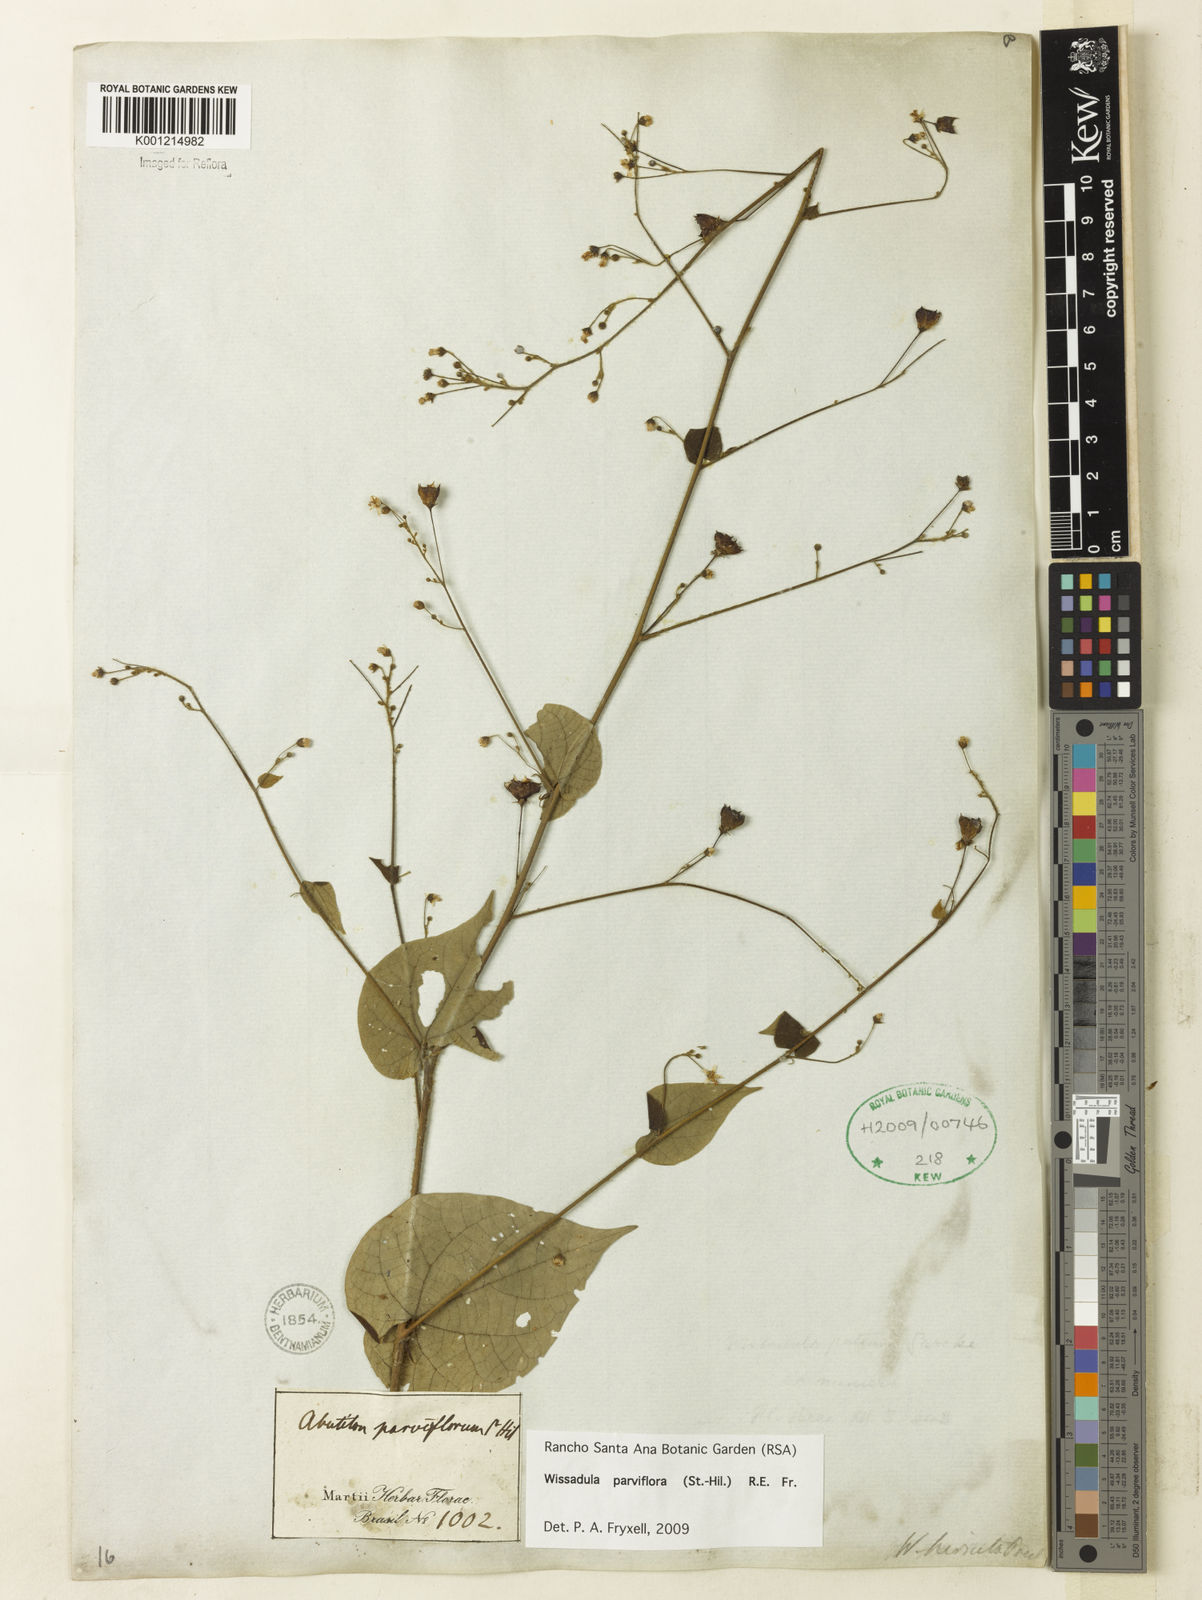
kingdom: Plantae
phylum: Tracheophyta
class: Magnoliopsida
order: Malvales
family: Malvaceae
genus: Wissadula
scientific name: Wissadula parviflora
